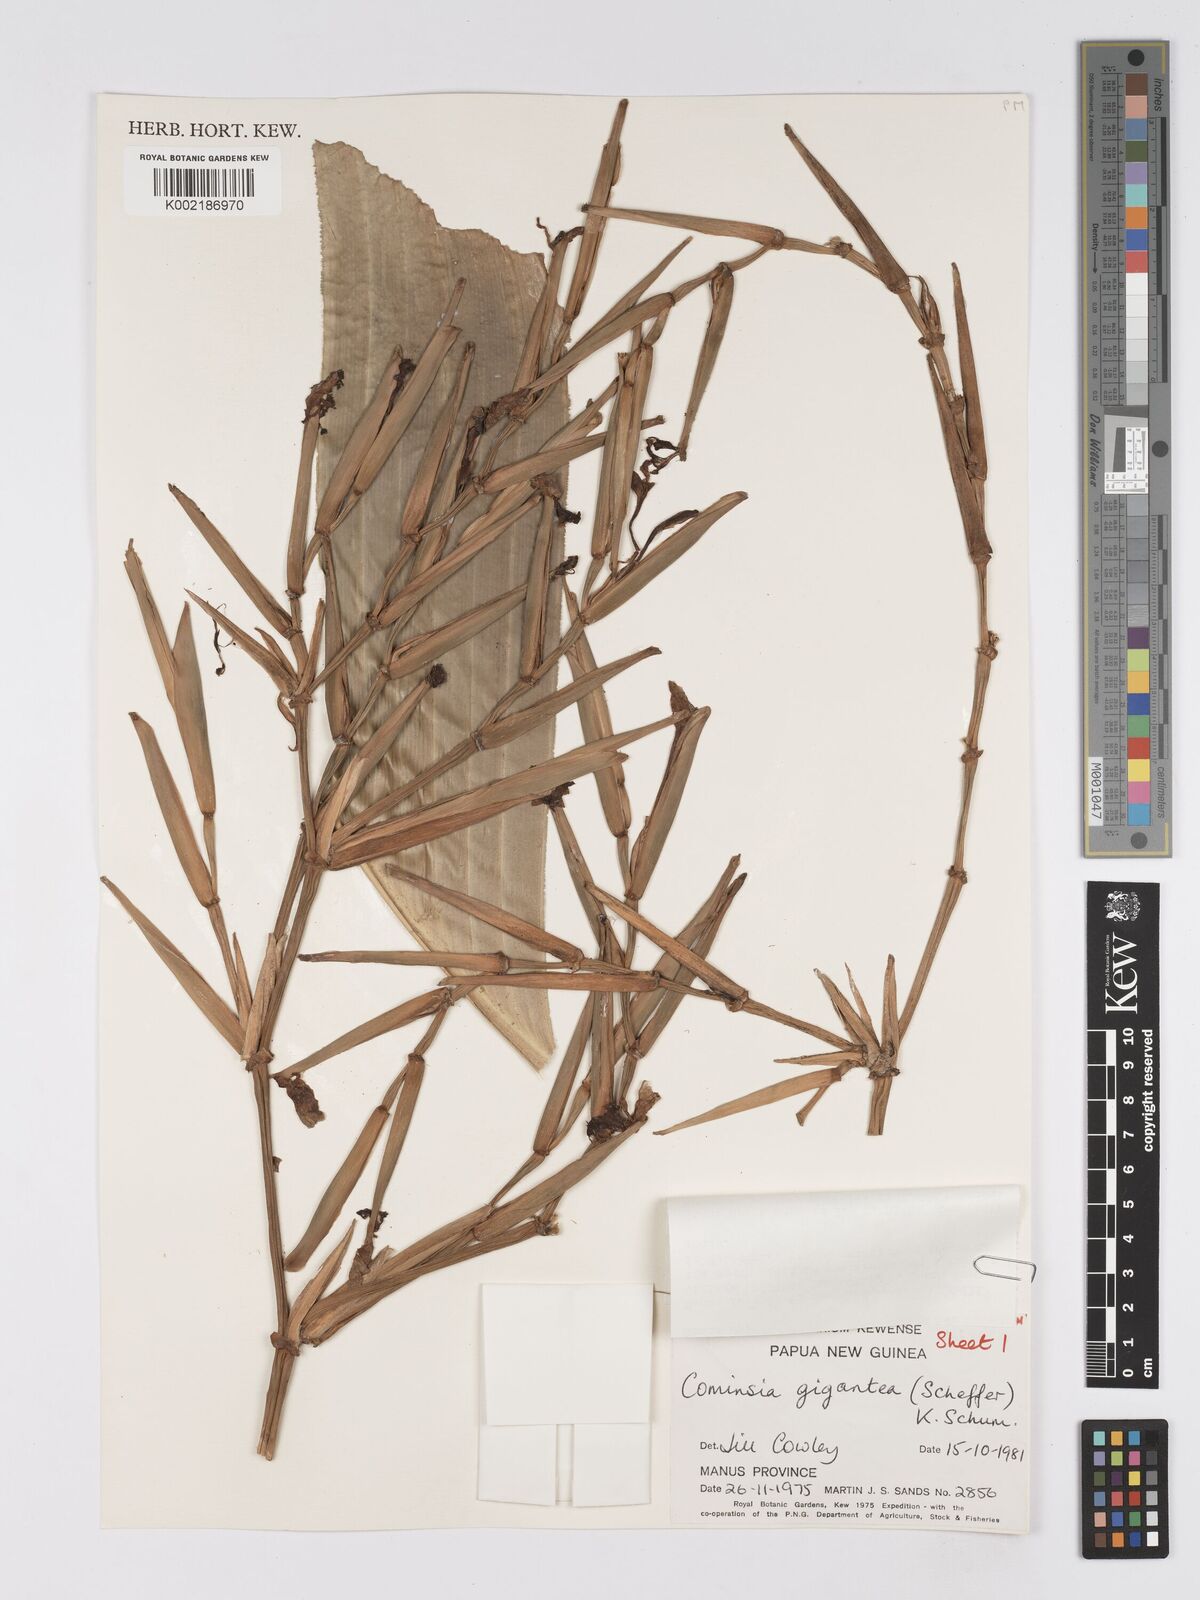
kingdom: Plantae
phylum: Tracheophyta
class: Liliopsida
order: Zingiberales
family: Marantaceae
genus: Phrynium
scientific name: Phrynium giganteum
